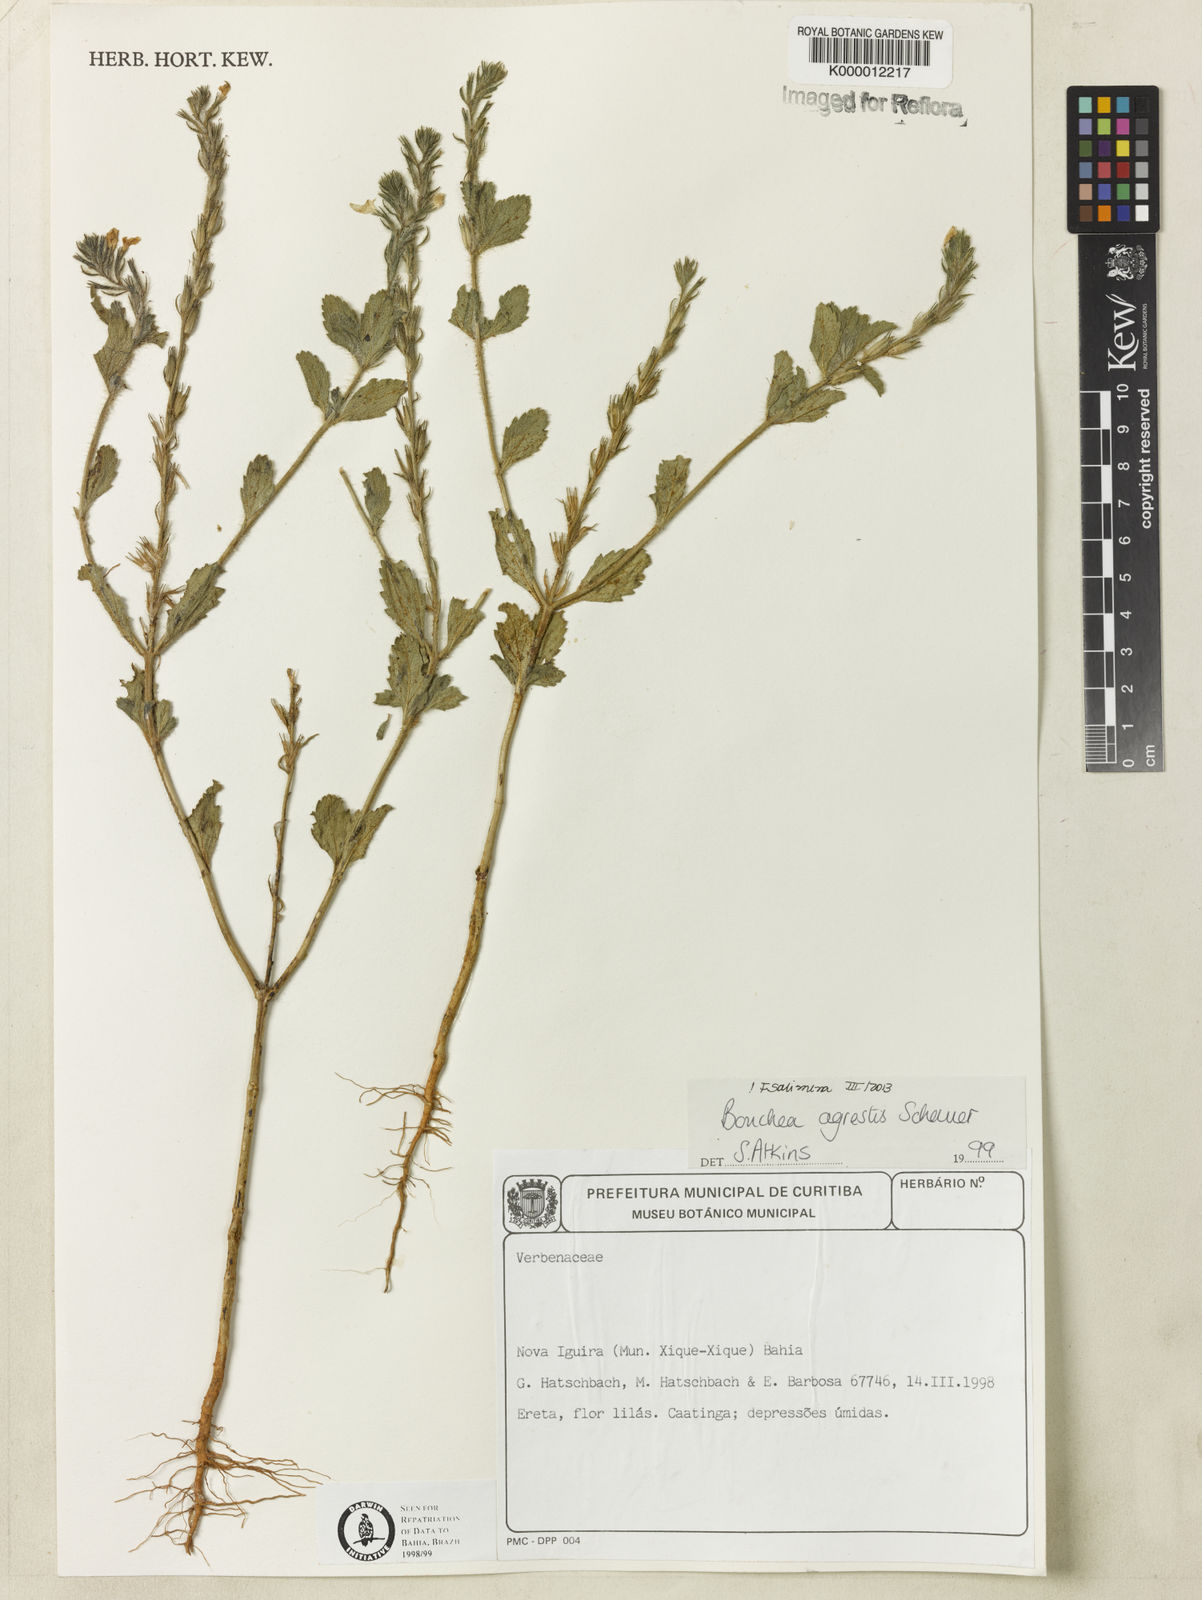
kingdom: Plantae
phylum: Tracheophyta
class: Magnoliopsida
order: Lamiales
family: Verbenaceae
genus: Bouchea
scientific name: Bouchea agrestis
